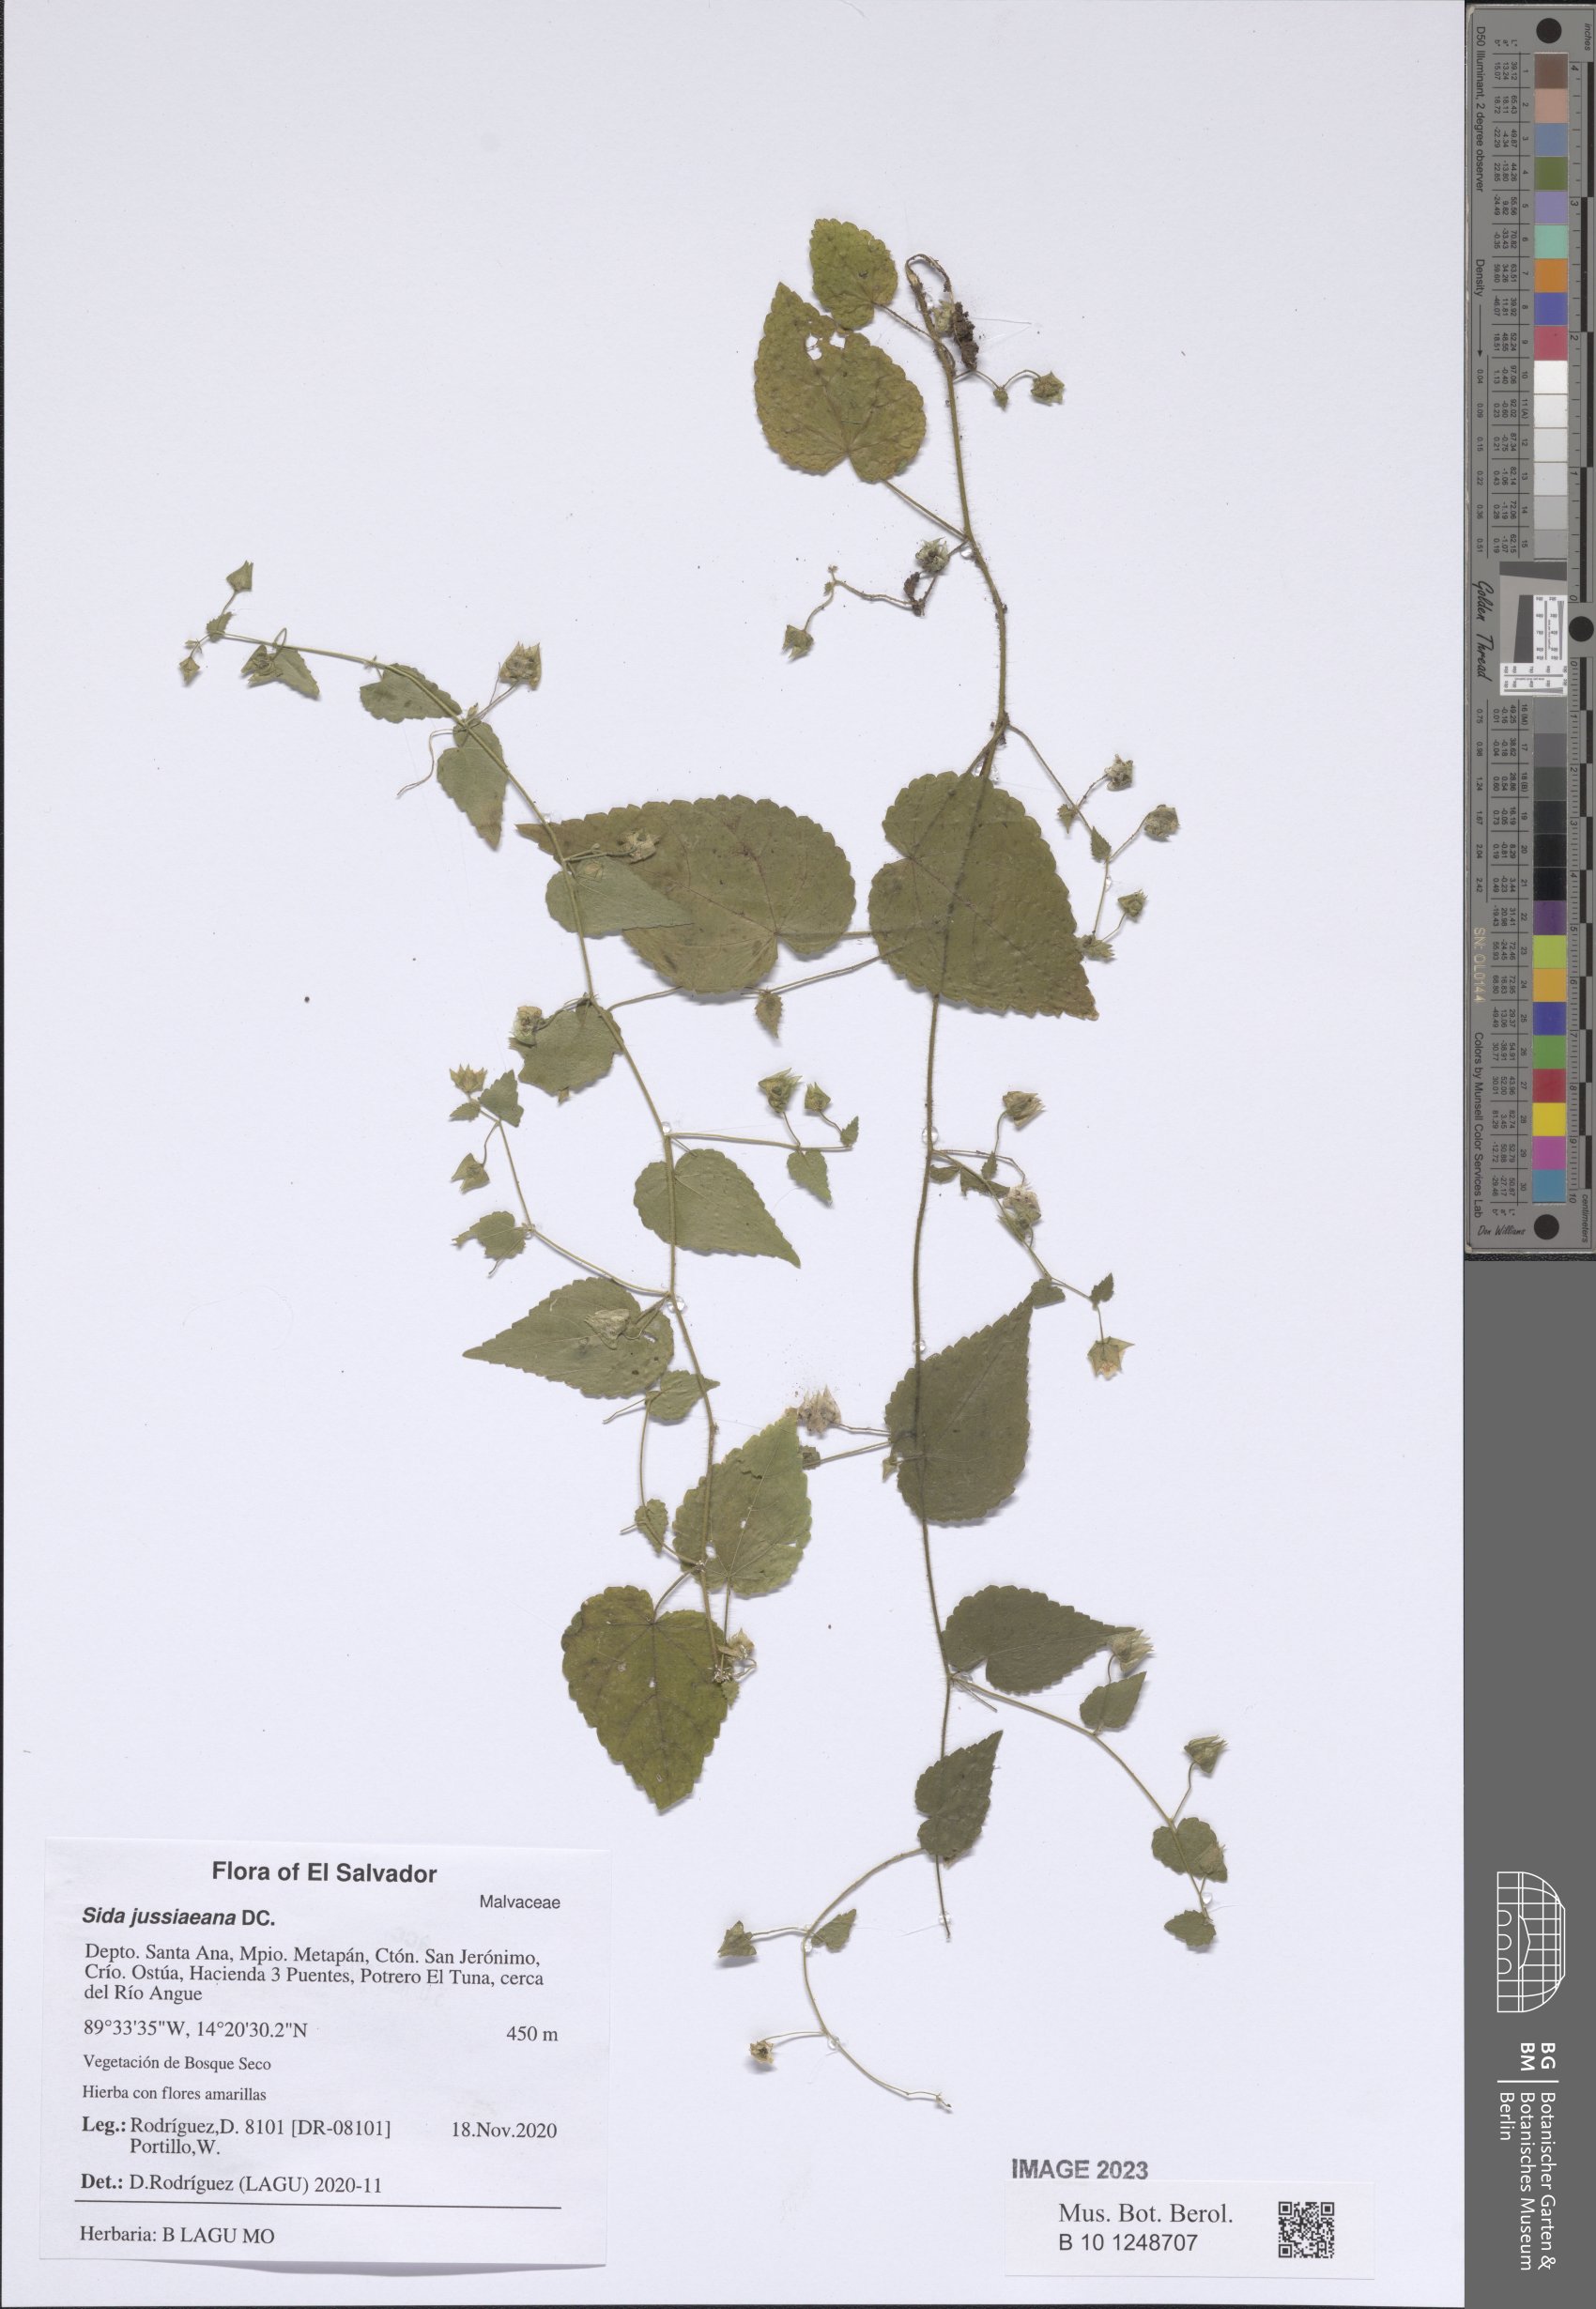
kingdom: Plantae
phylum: Tracheophyta
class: Magnoliopsida
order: Malvales
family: Malvaceae
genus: Sida
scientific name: Sida jussiaeana
